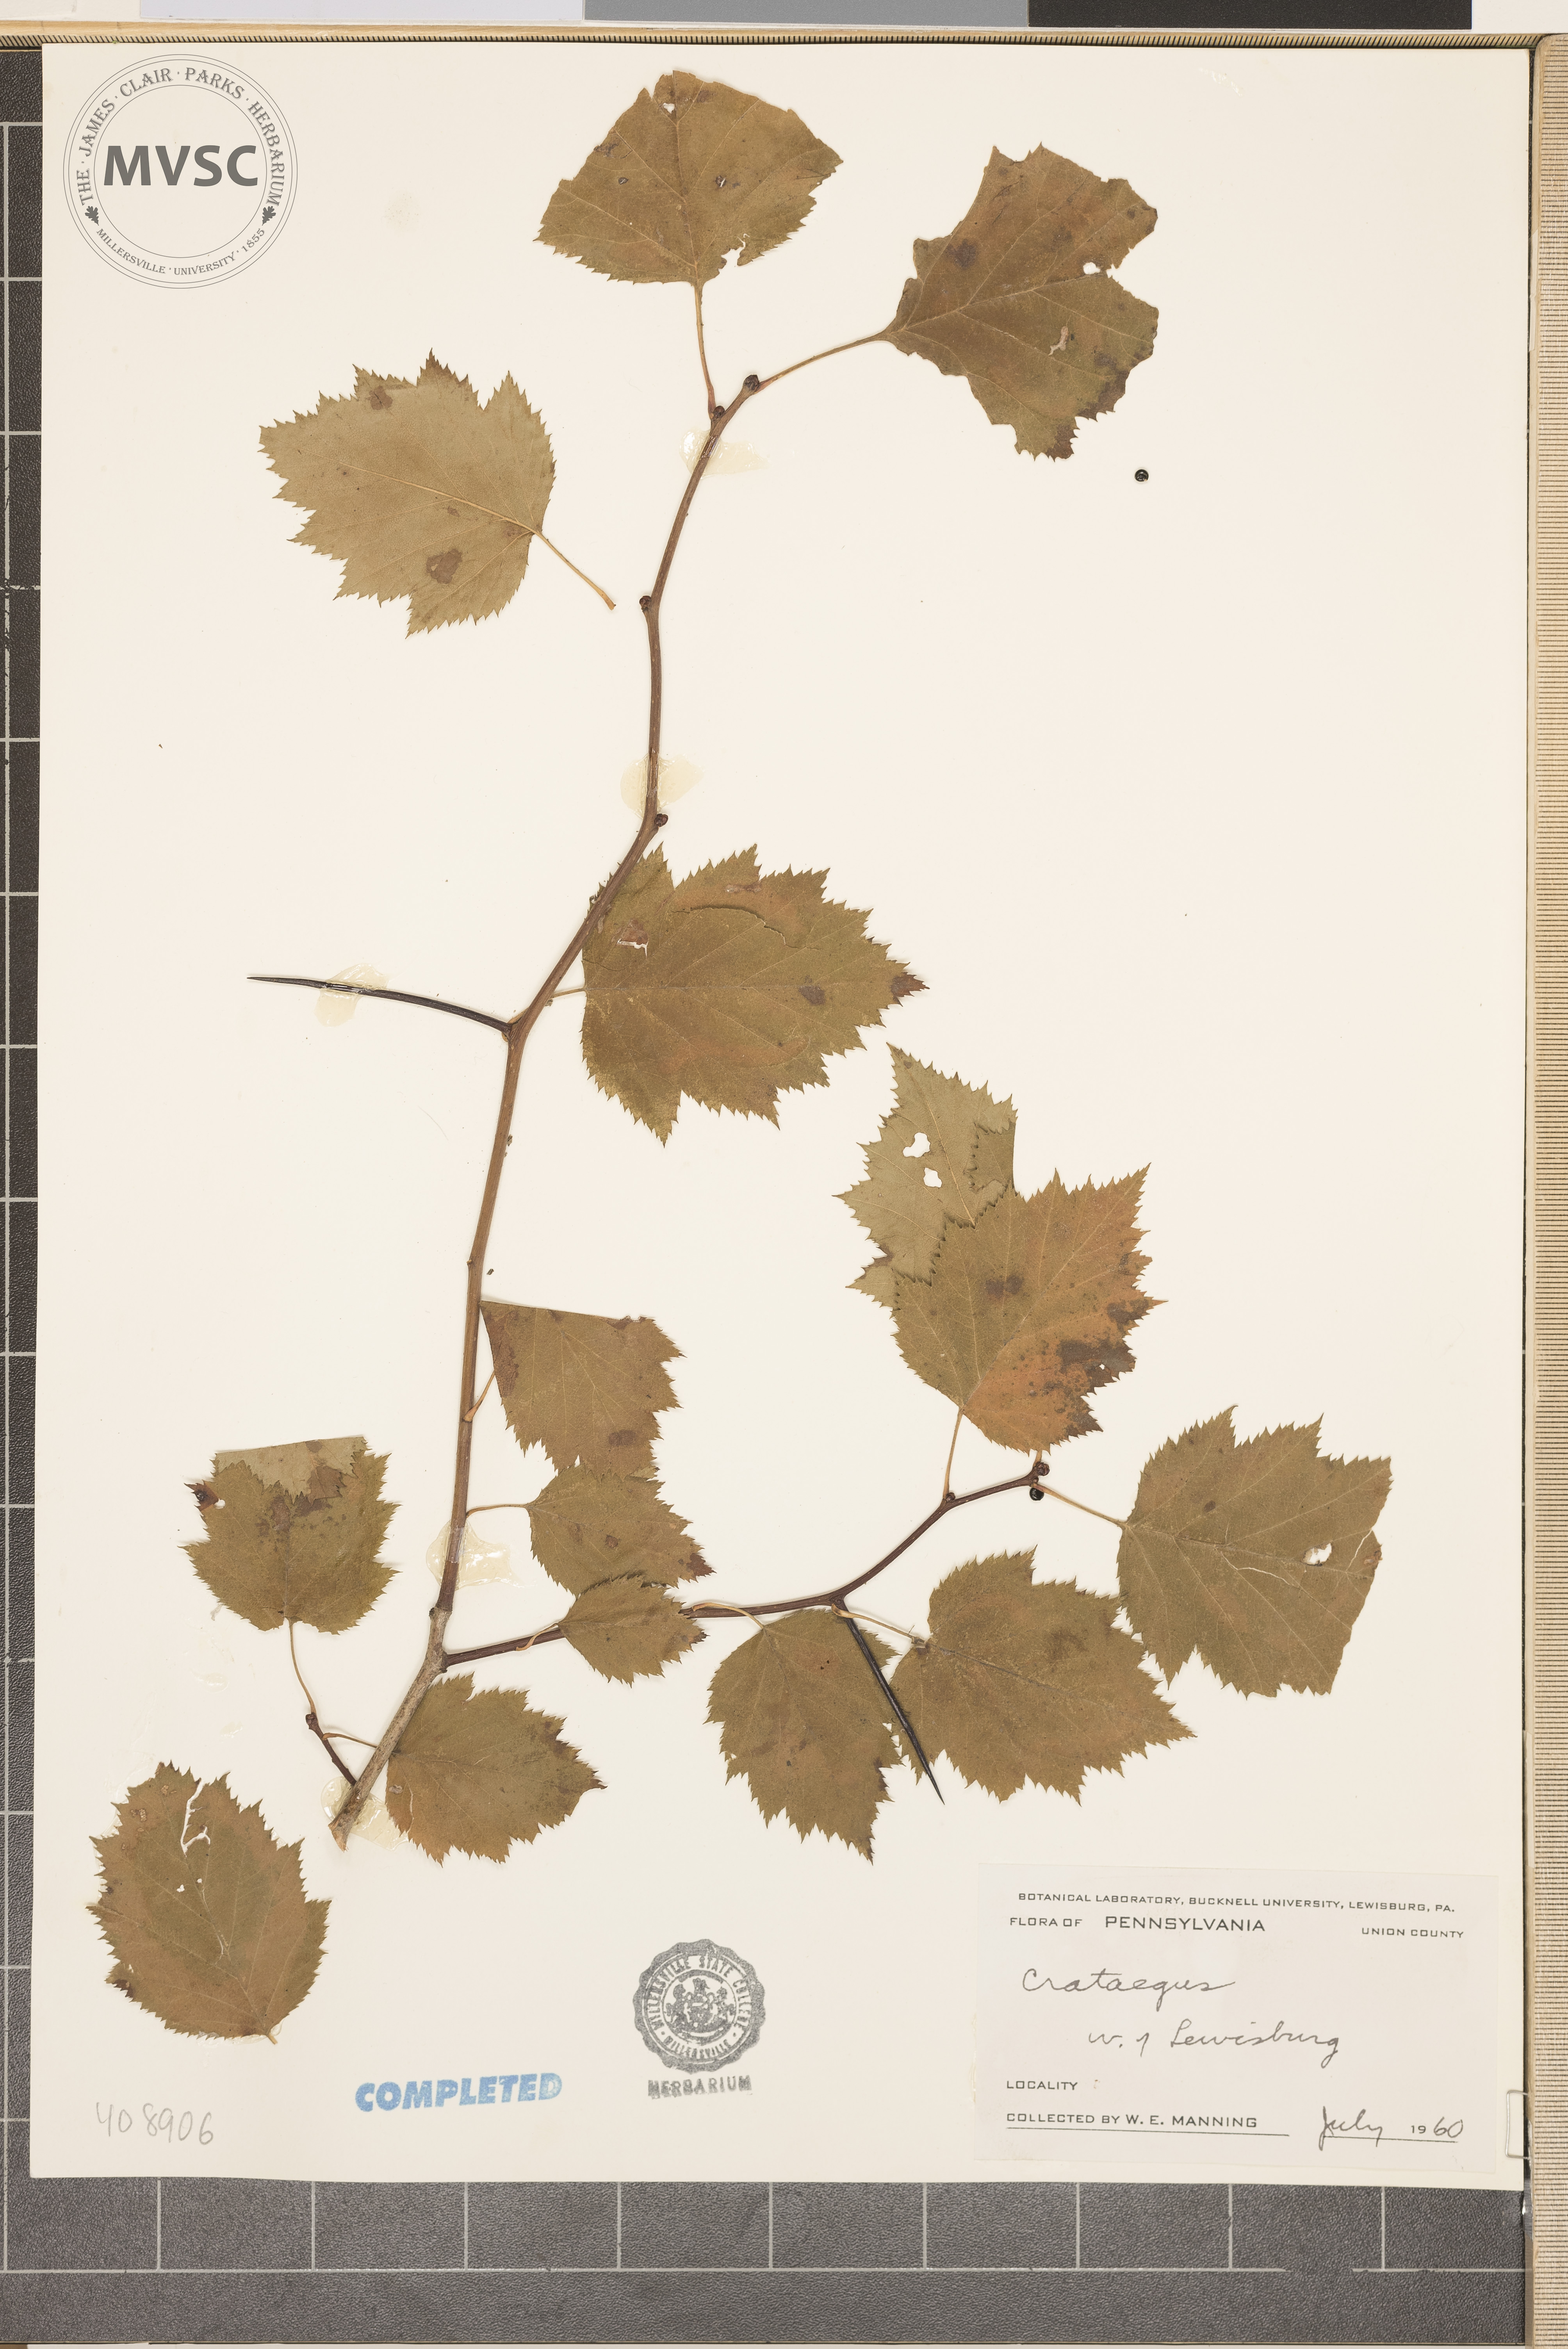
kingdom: Plantae
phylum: Tracheophyta
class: Magnoliopsida
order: Rosales
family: Rosaceae
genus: Crataegus
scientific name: Crataegus
